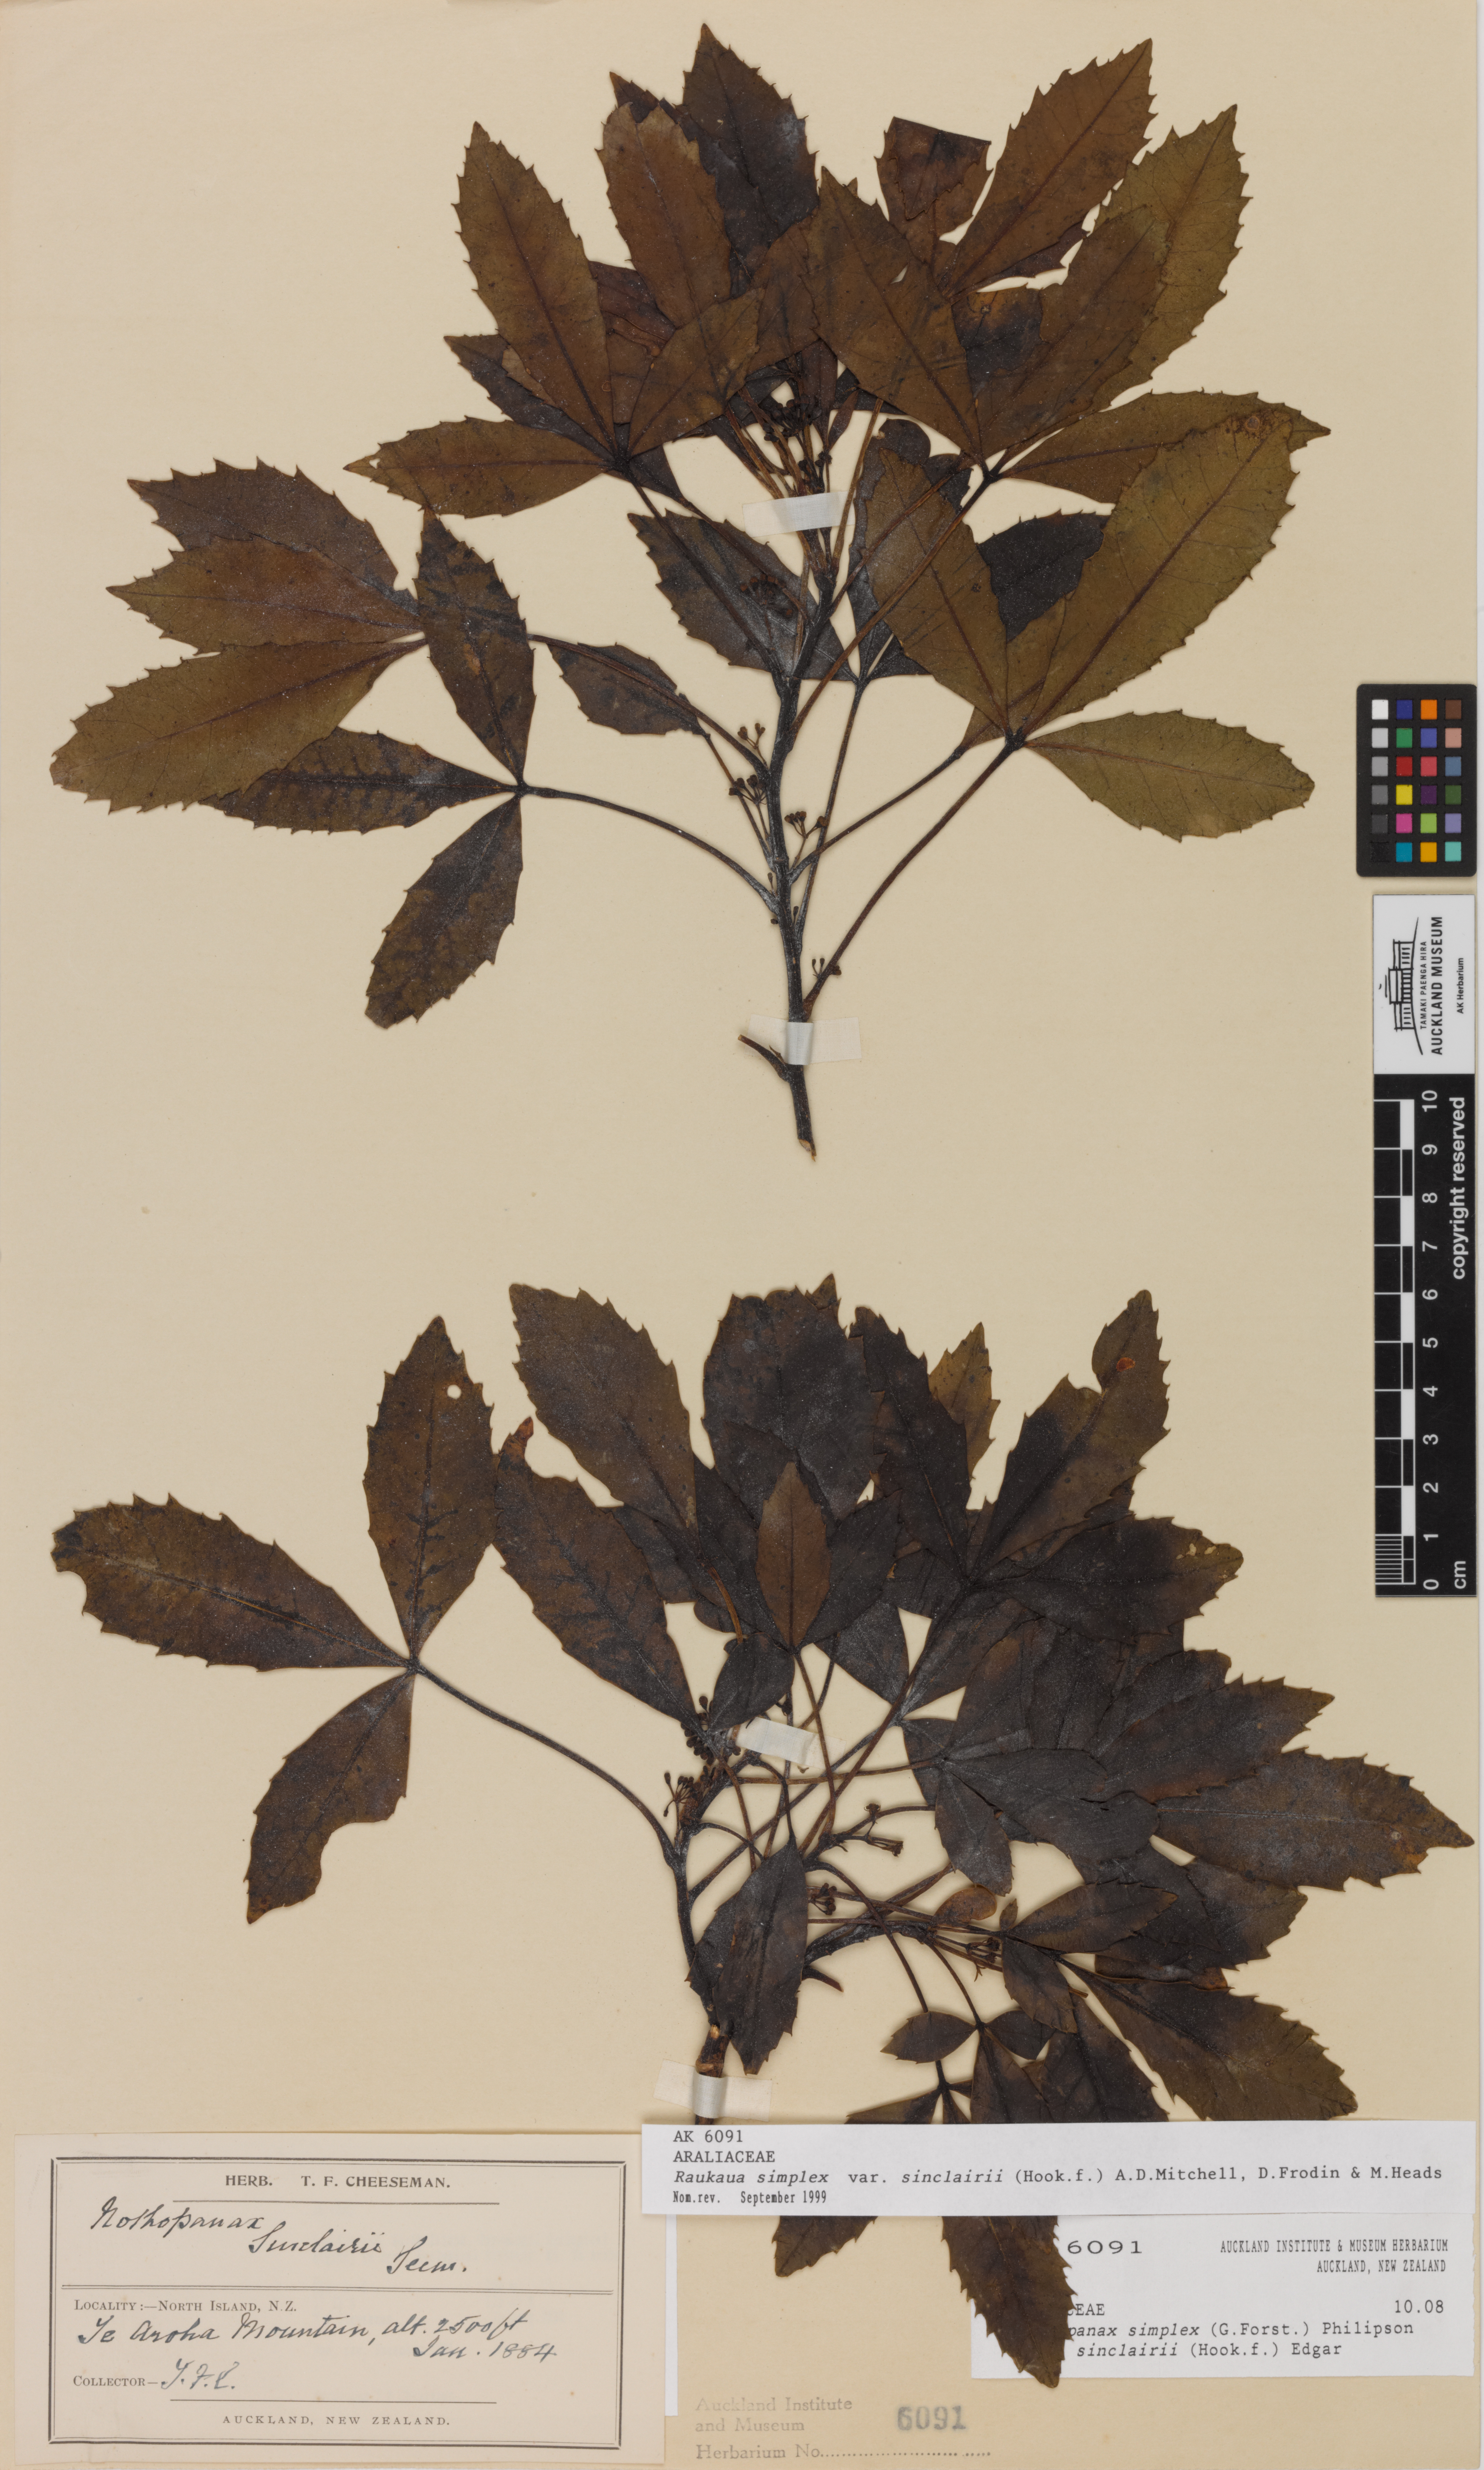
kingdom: Plantae
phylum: Tracheophyta
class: Magnoliopsida
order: Apiales
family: Araliaceae
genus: Raukaua
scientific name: Raukaua simplex
